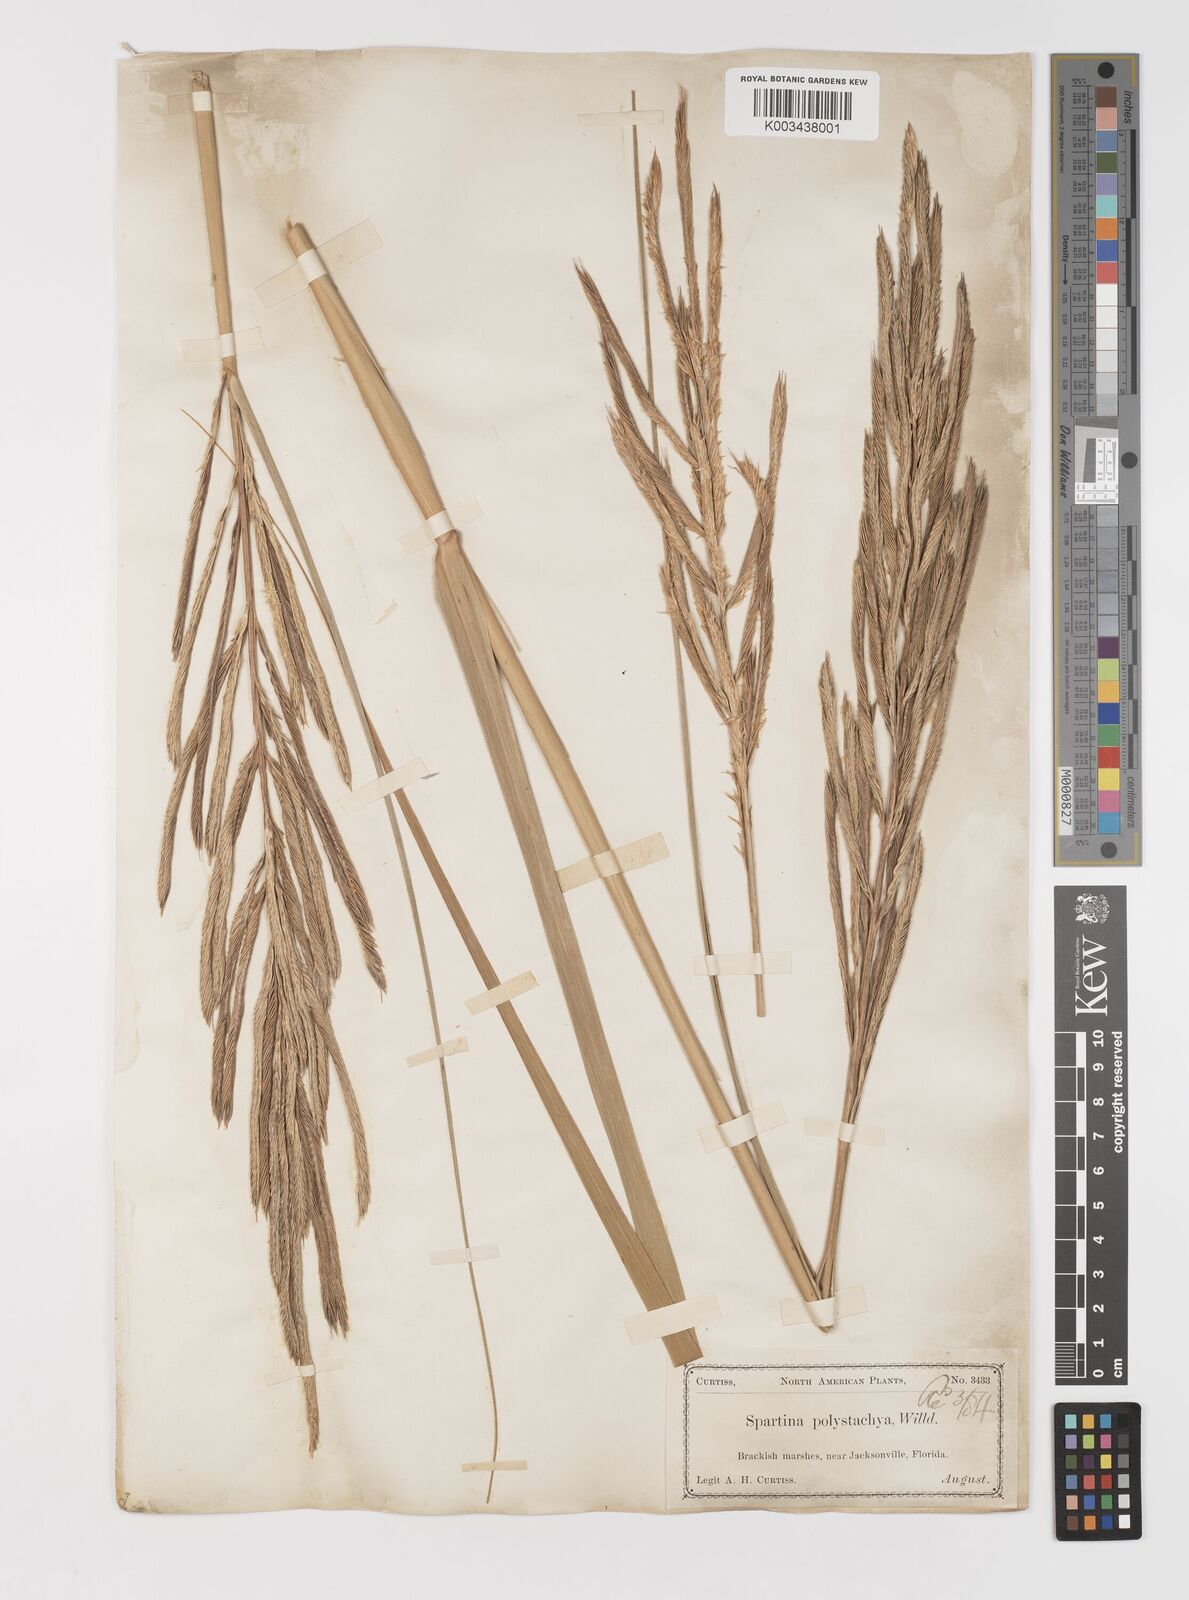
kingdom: Plantae
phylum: Tracheophyta
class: Liliopsida
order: Poales
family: Poaceae
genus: Sporobolus
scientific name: Sporobolus cynosuroides
